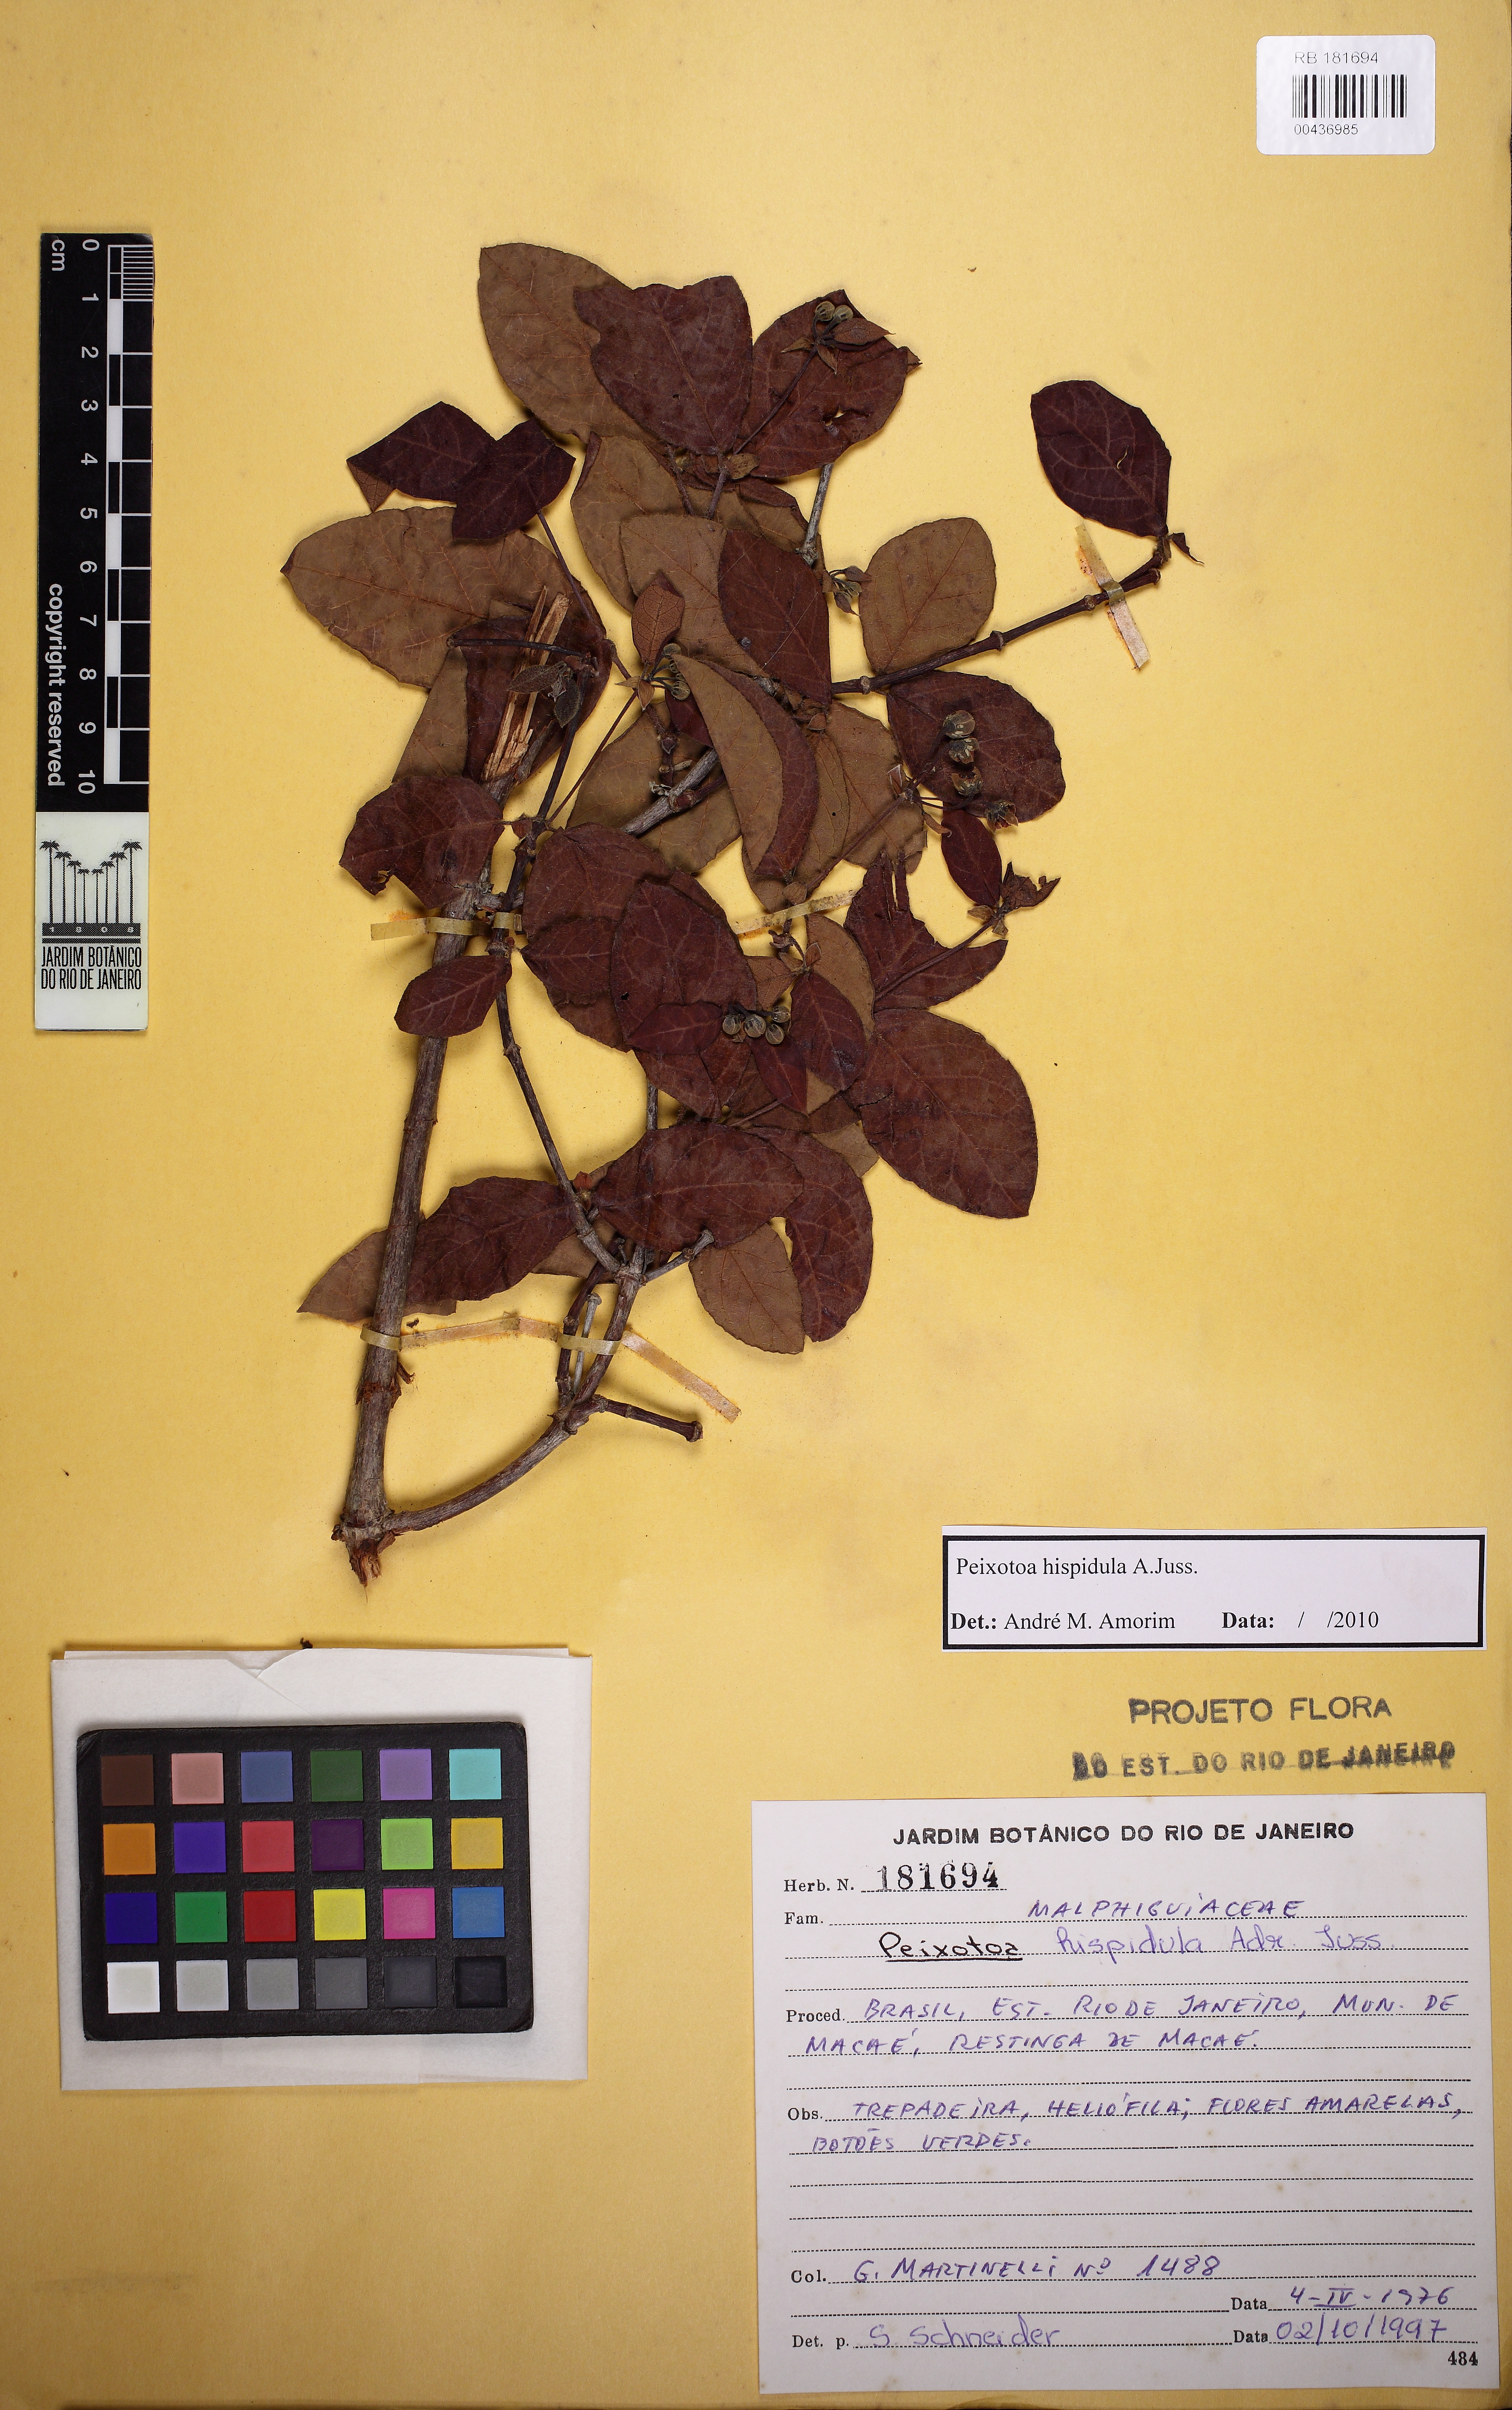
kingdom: Plantae
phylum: Tracheophyta
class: Magnoliopsida
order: Malpighiales
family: Malpighiaceae
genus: Peixotoa
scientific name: Peixotoa hispidula
